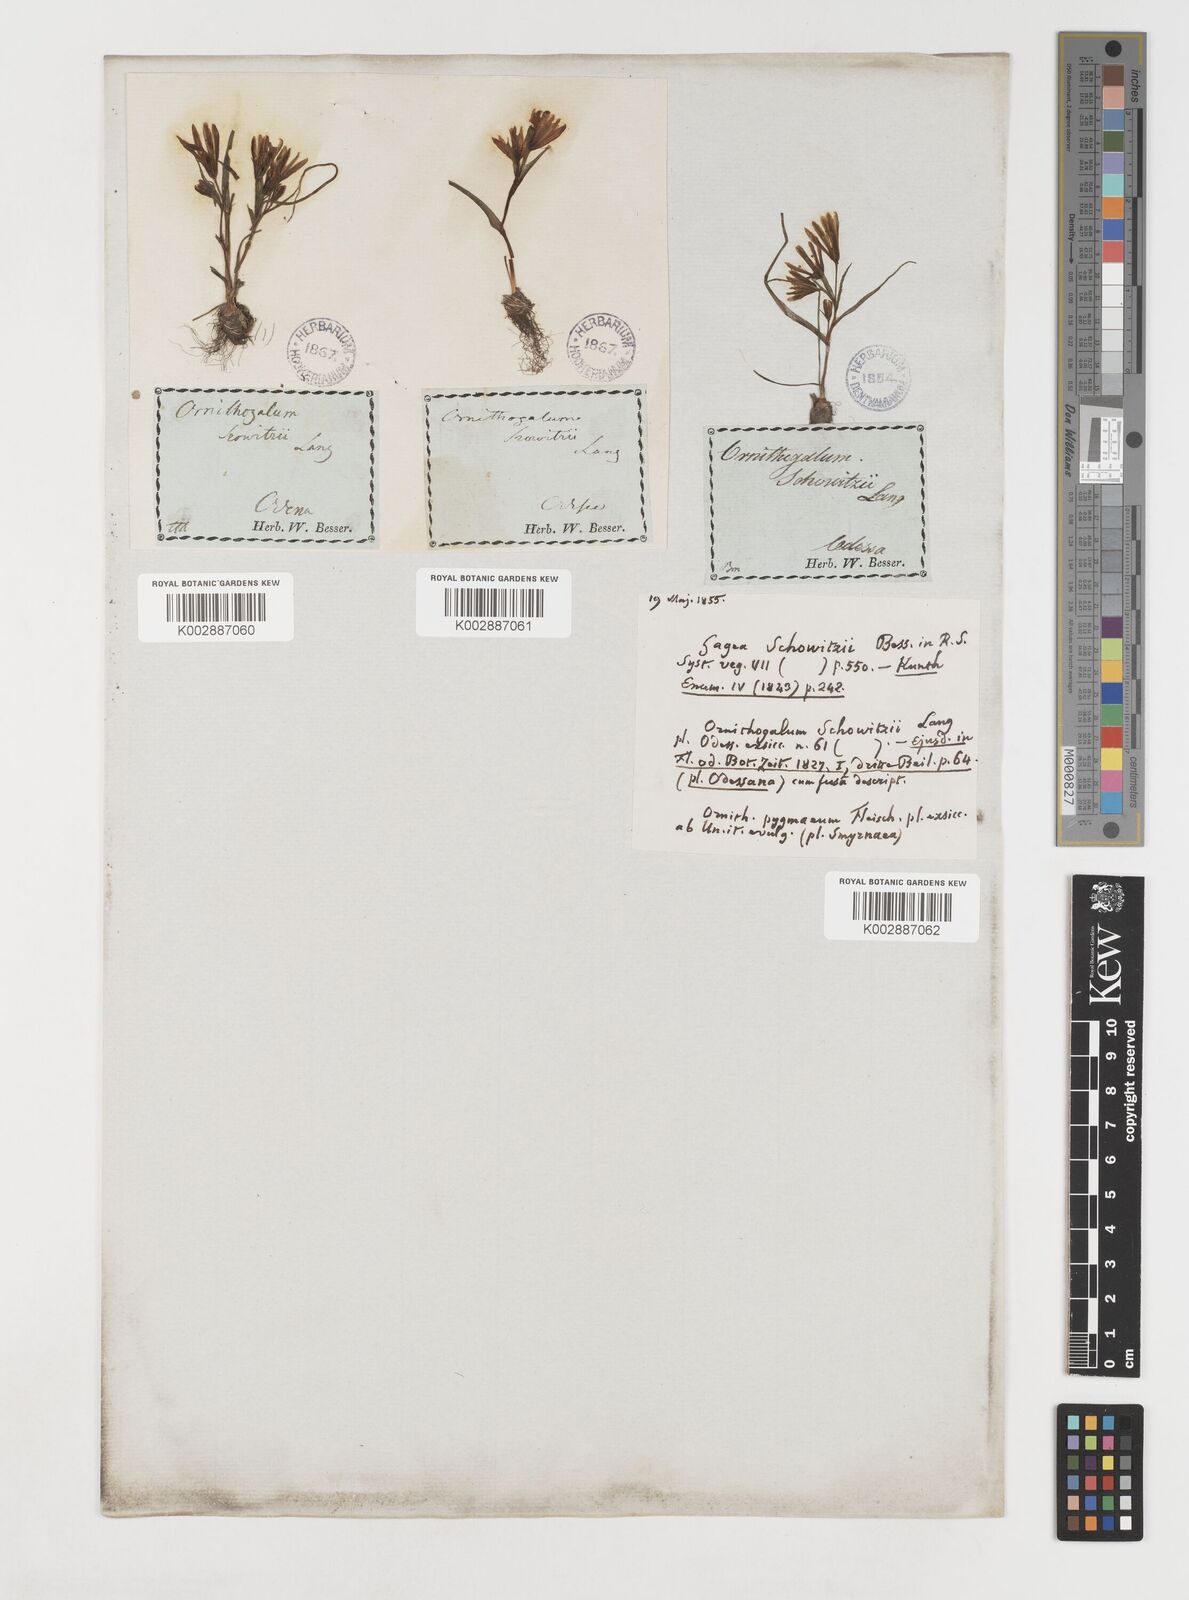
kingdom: Plantae
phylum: Tracheophyta
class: Liliopsida
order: Liliales
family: Liliaceae
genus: Gagea
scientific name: Gagea bohemica
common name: Early star-of-bethlehem
